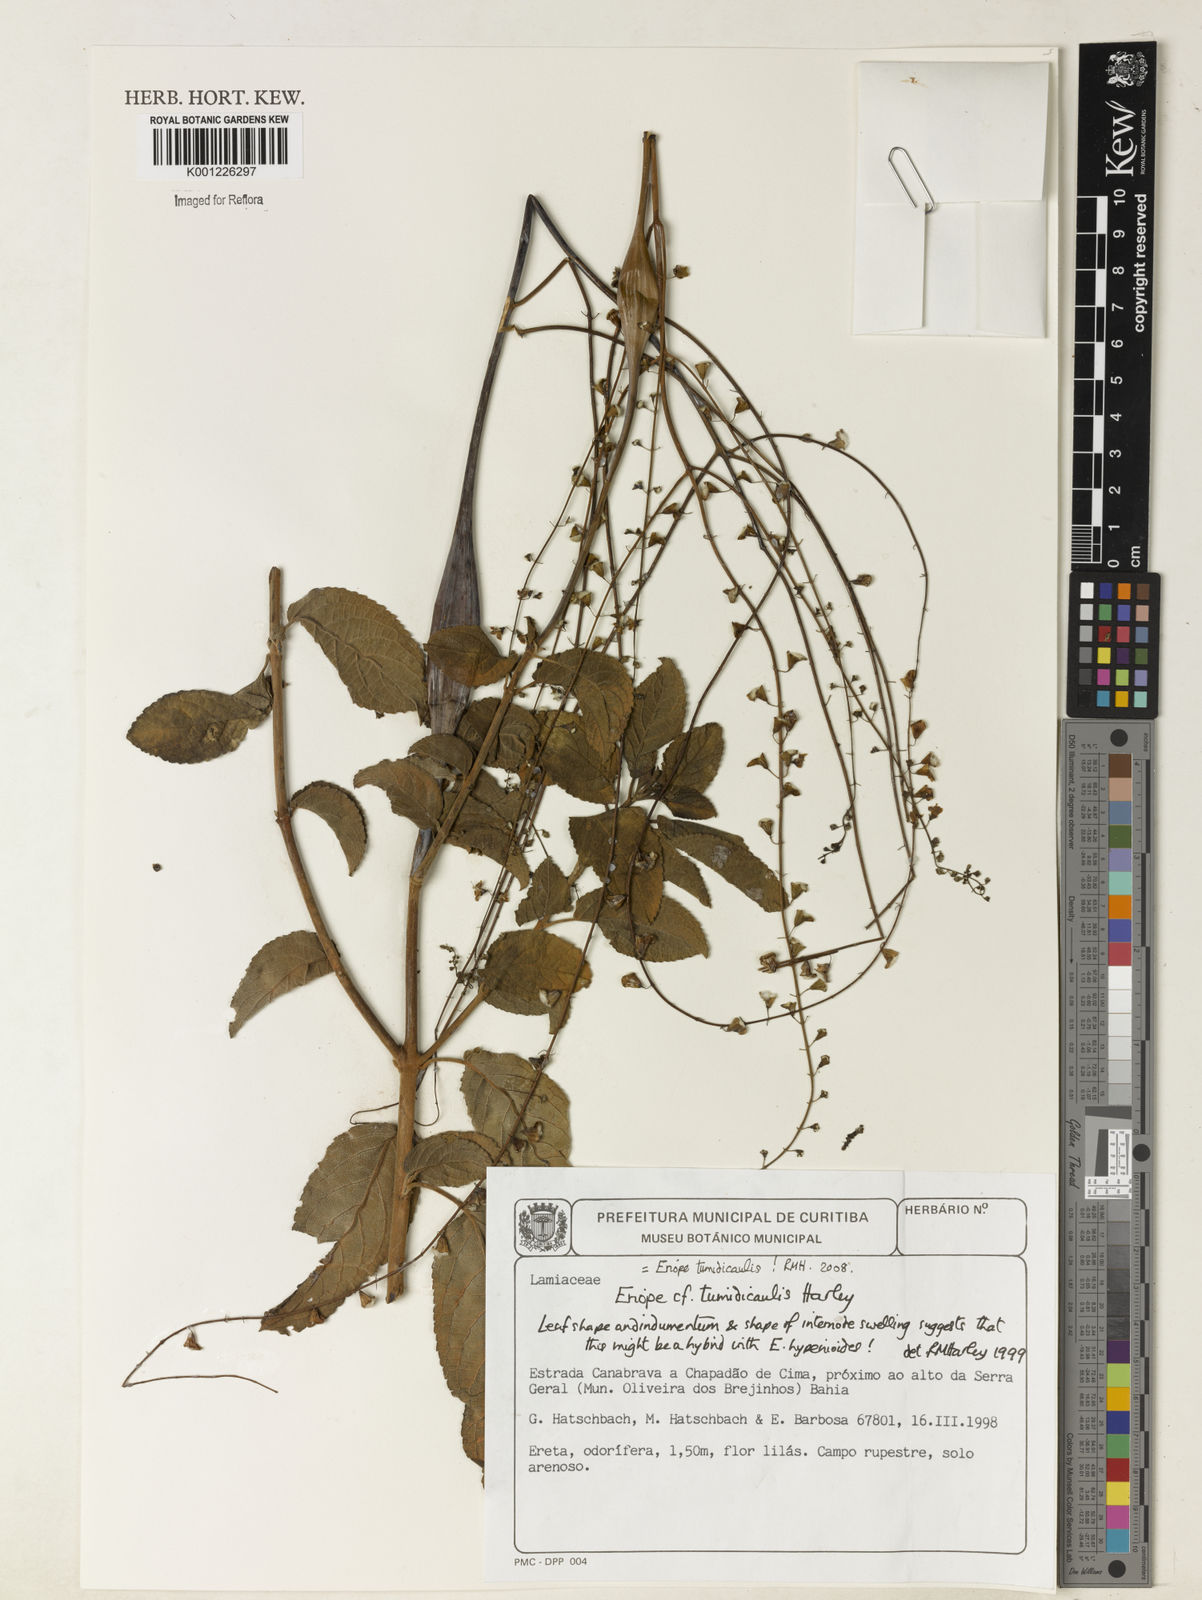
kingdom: Plantae
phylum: Tracheophyta
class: Magnoliopsida
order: Lamiales
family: Lamiaceae
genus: Eriope
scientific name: Eriope tumidicaulis
